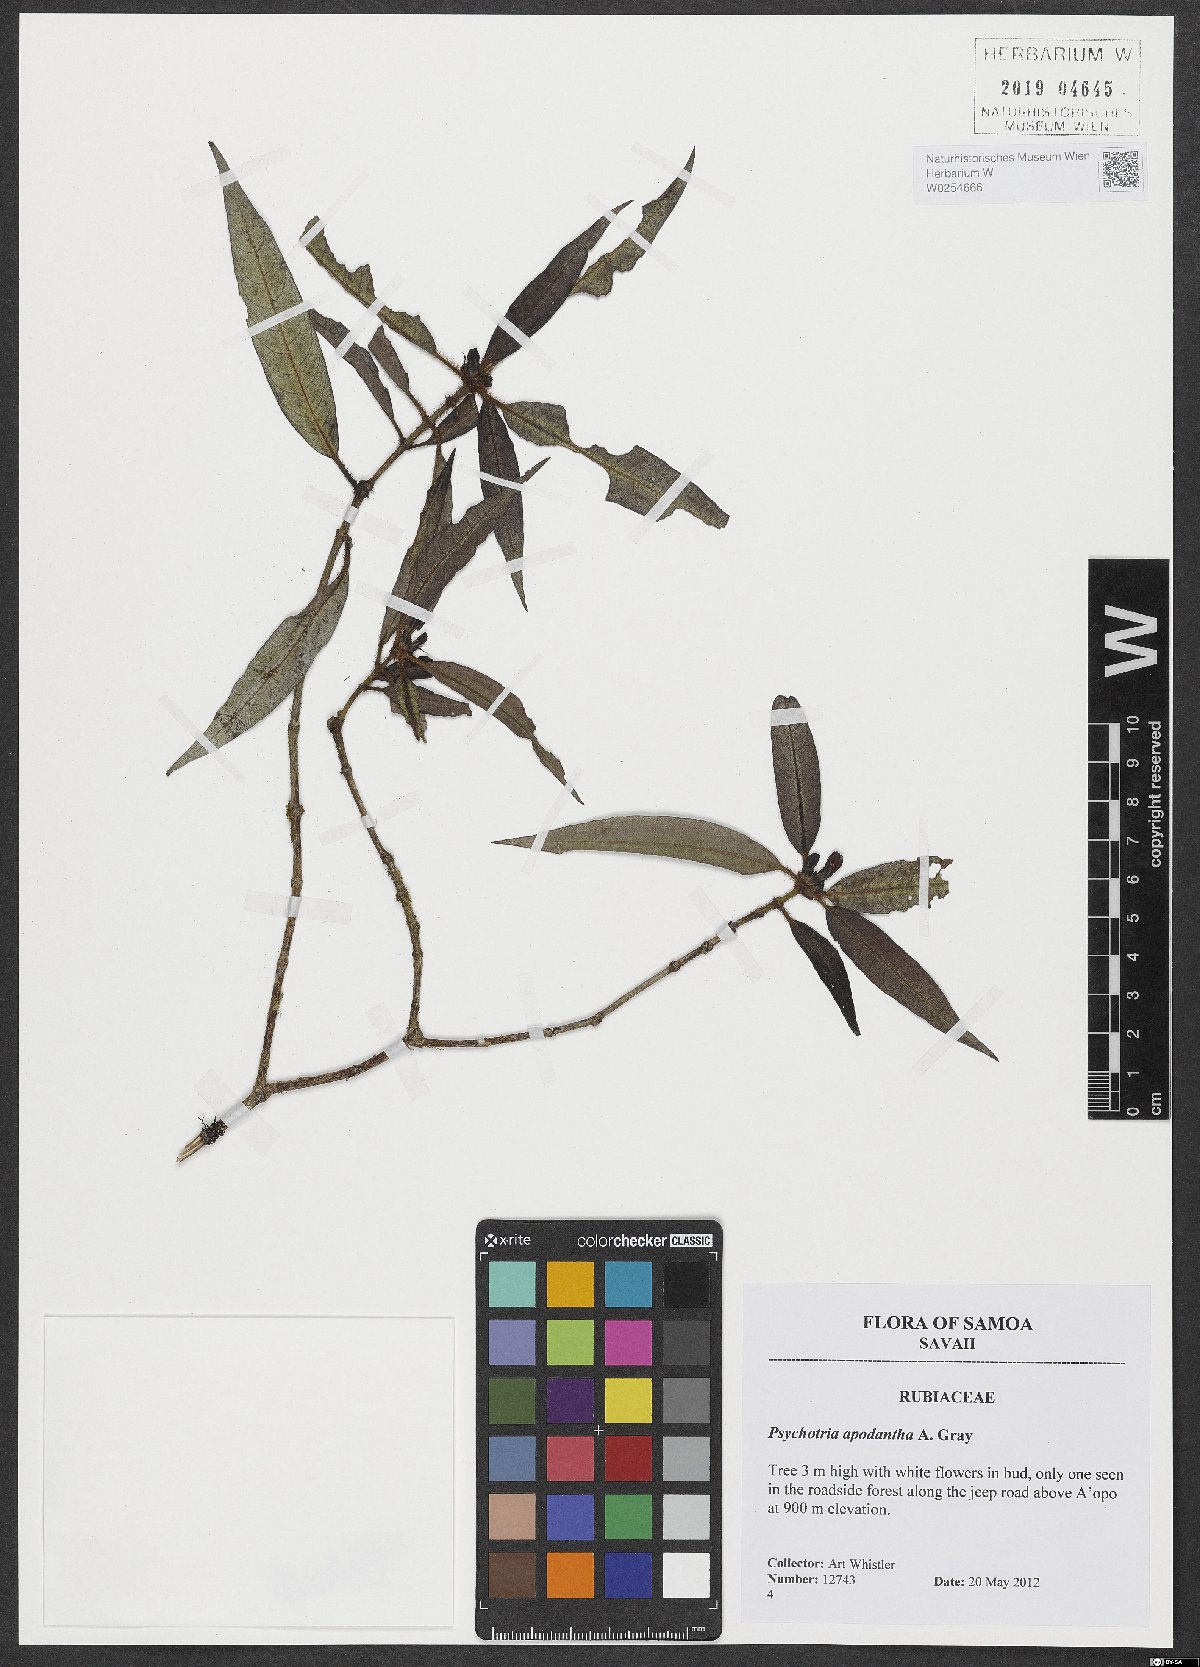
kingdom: Plantae
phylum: Tracheophyta
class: Magnoliopsida
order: Gentianales
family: Rubiaceae
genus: Psychotria
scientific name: Psychotria apodantha
